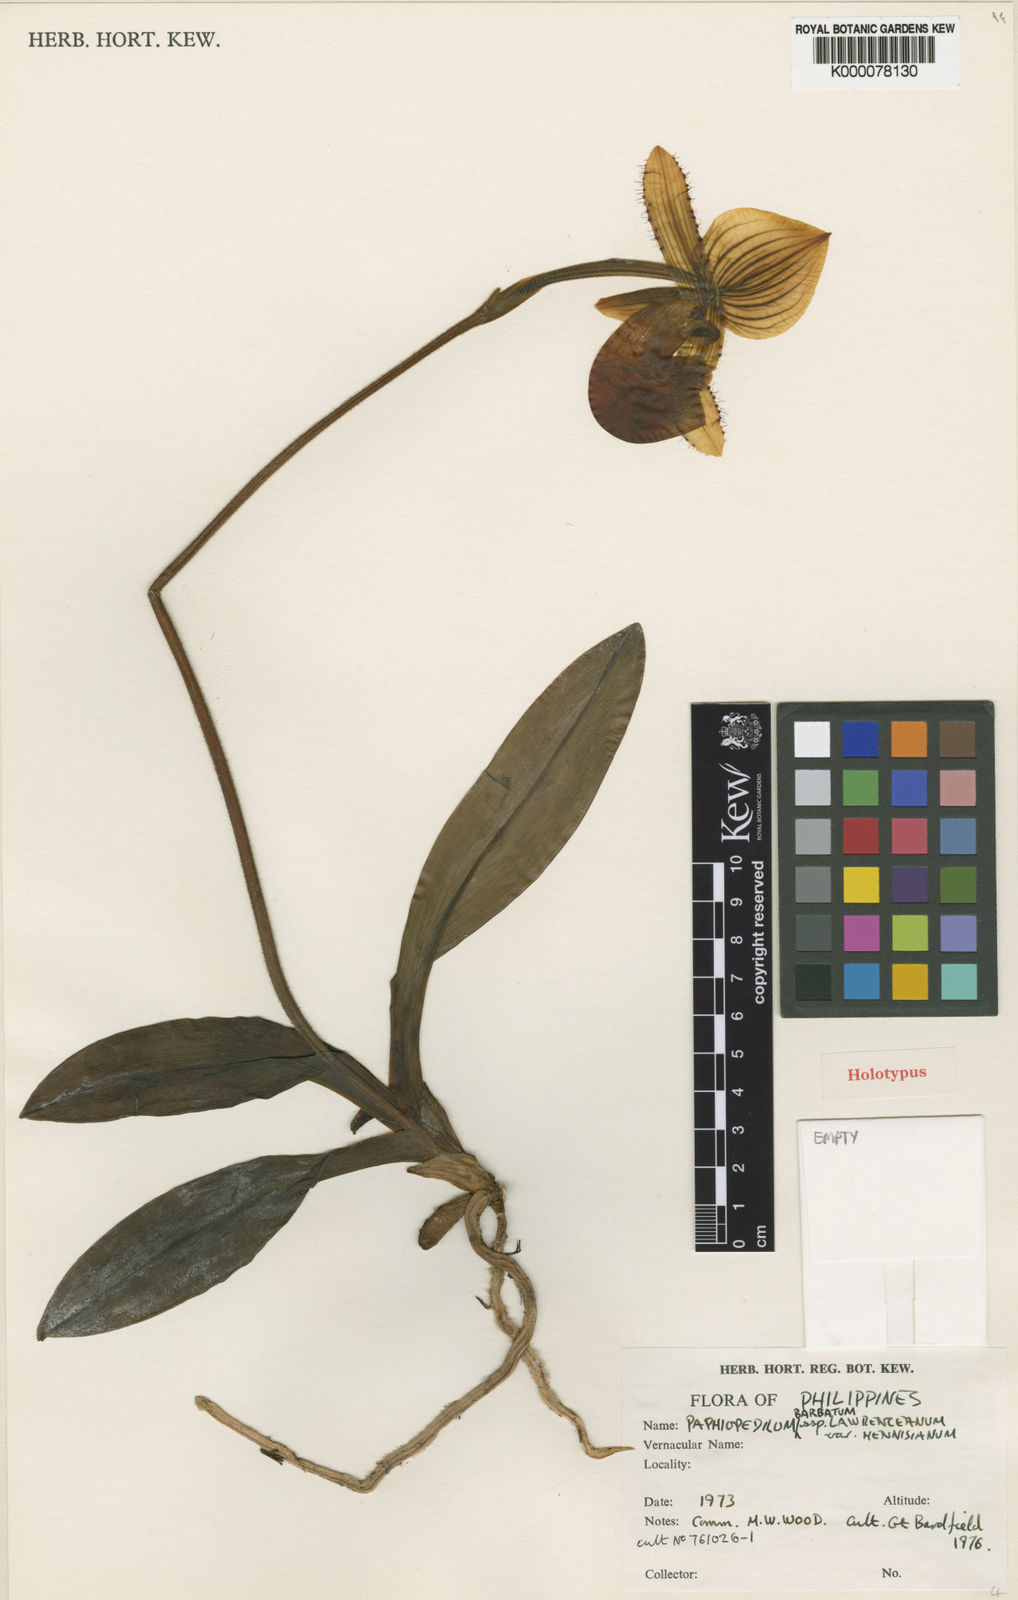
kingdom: Plantae
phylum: Tracheophyta
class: Liliopsida
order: Asparagales
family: Orchidaceae
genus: Paphiopedilum
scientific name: Paphiopedilum hennisianum
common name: Hennis' paphiopedilum
